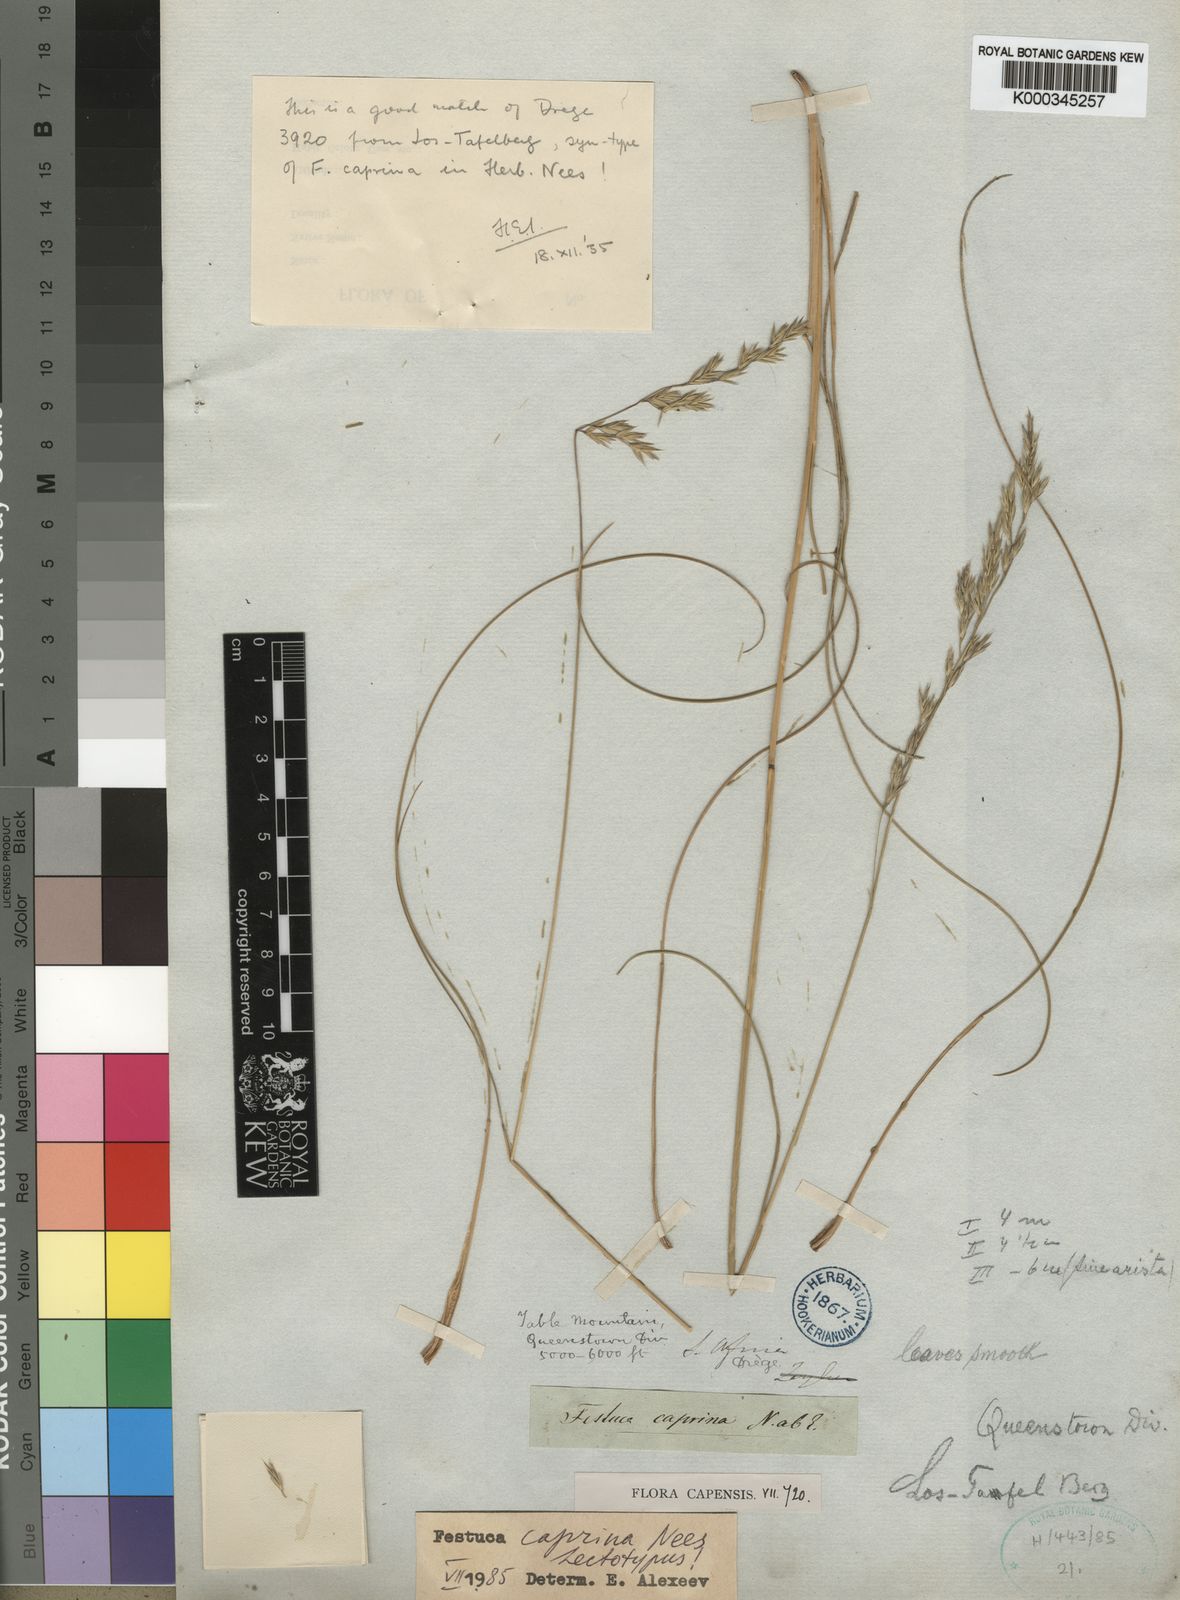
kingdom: Plantae
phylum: Tracheophyta
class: Liliopsida
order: Poales
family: Poaceae
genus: Festuca
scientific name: Festuca caprina
